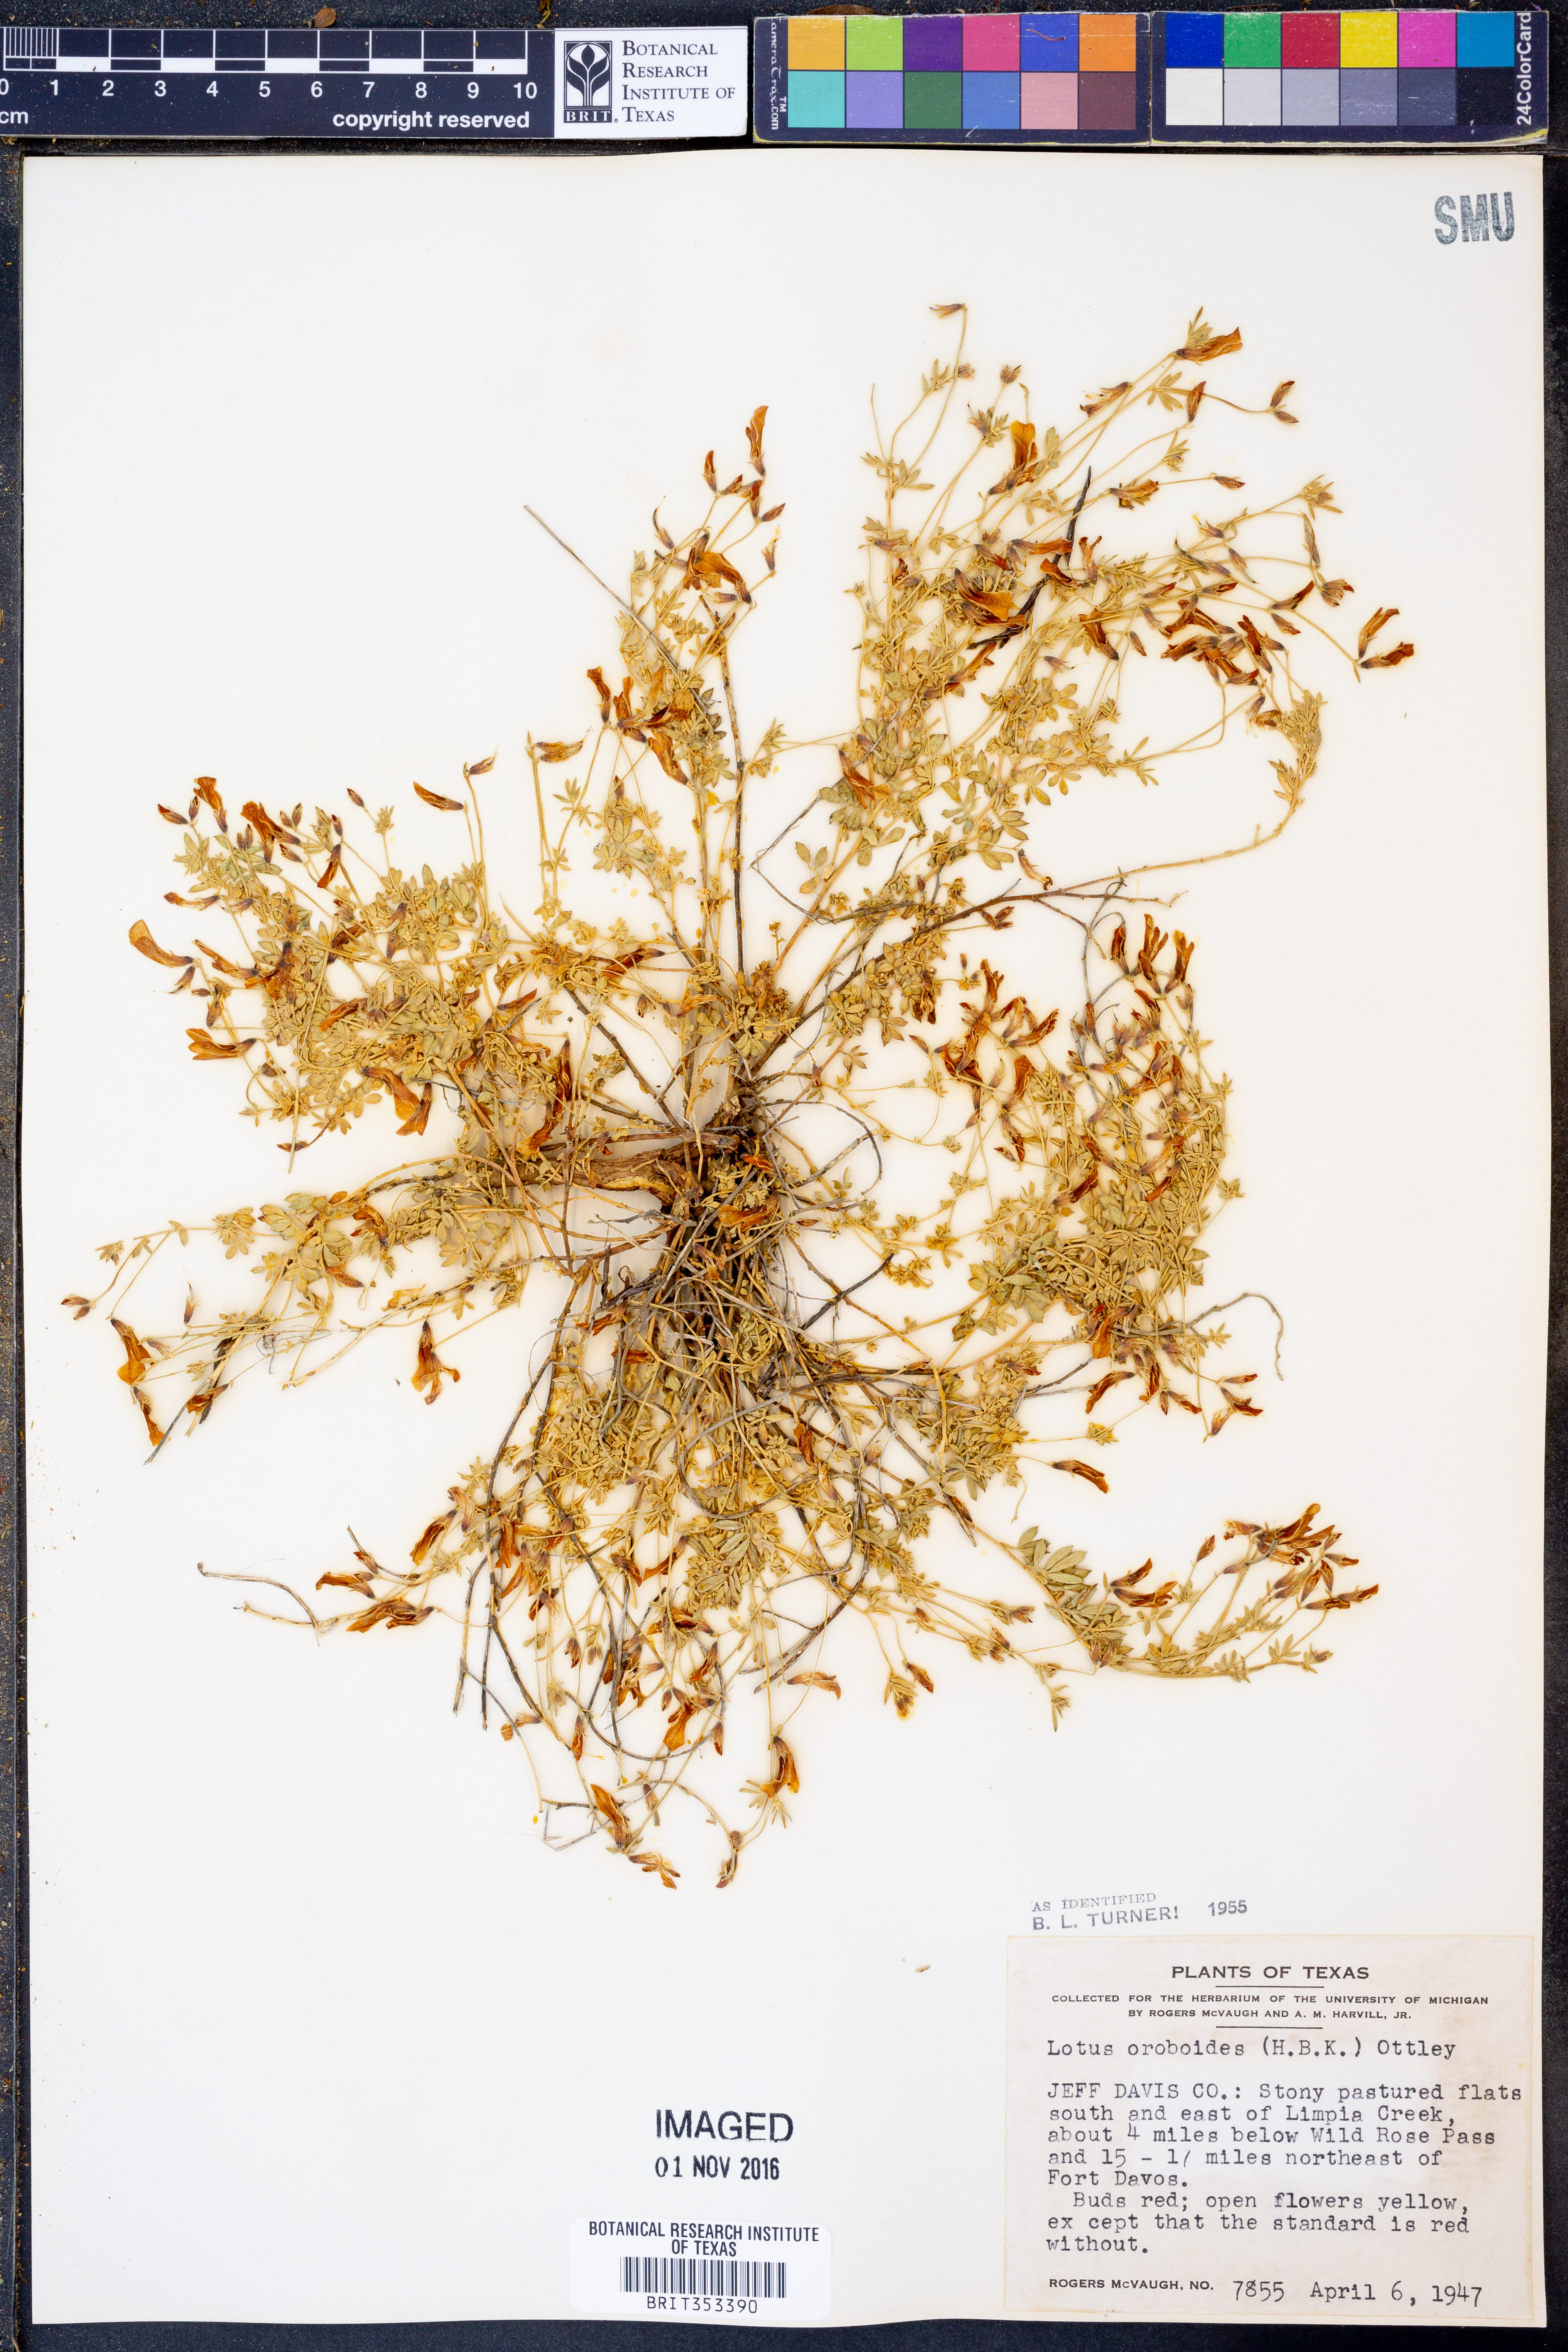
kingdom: Plantae
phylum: Tracheophyta
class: Magnoliopsida
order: Fabales
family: Fabaceae
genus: Acmispon
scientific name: Acmispon oroboides
